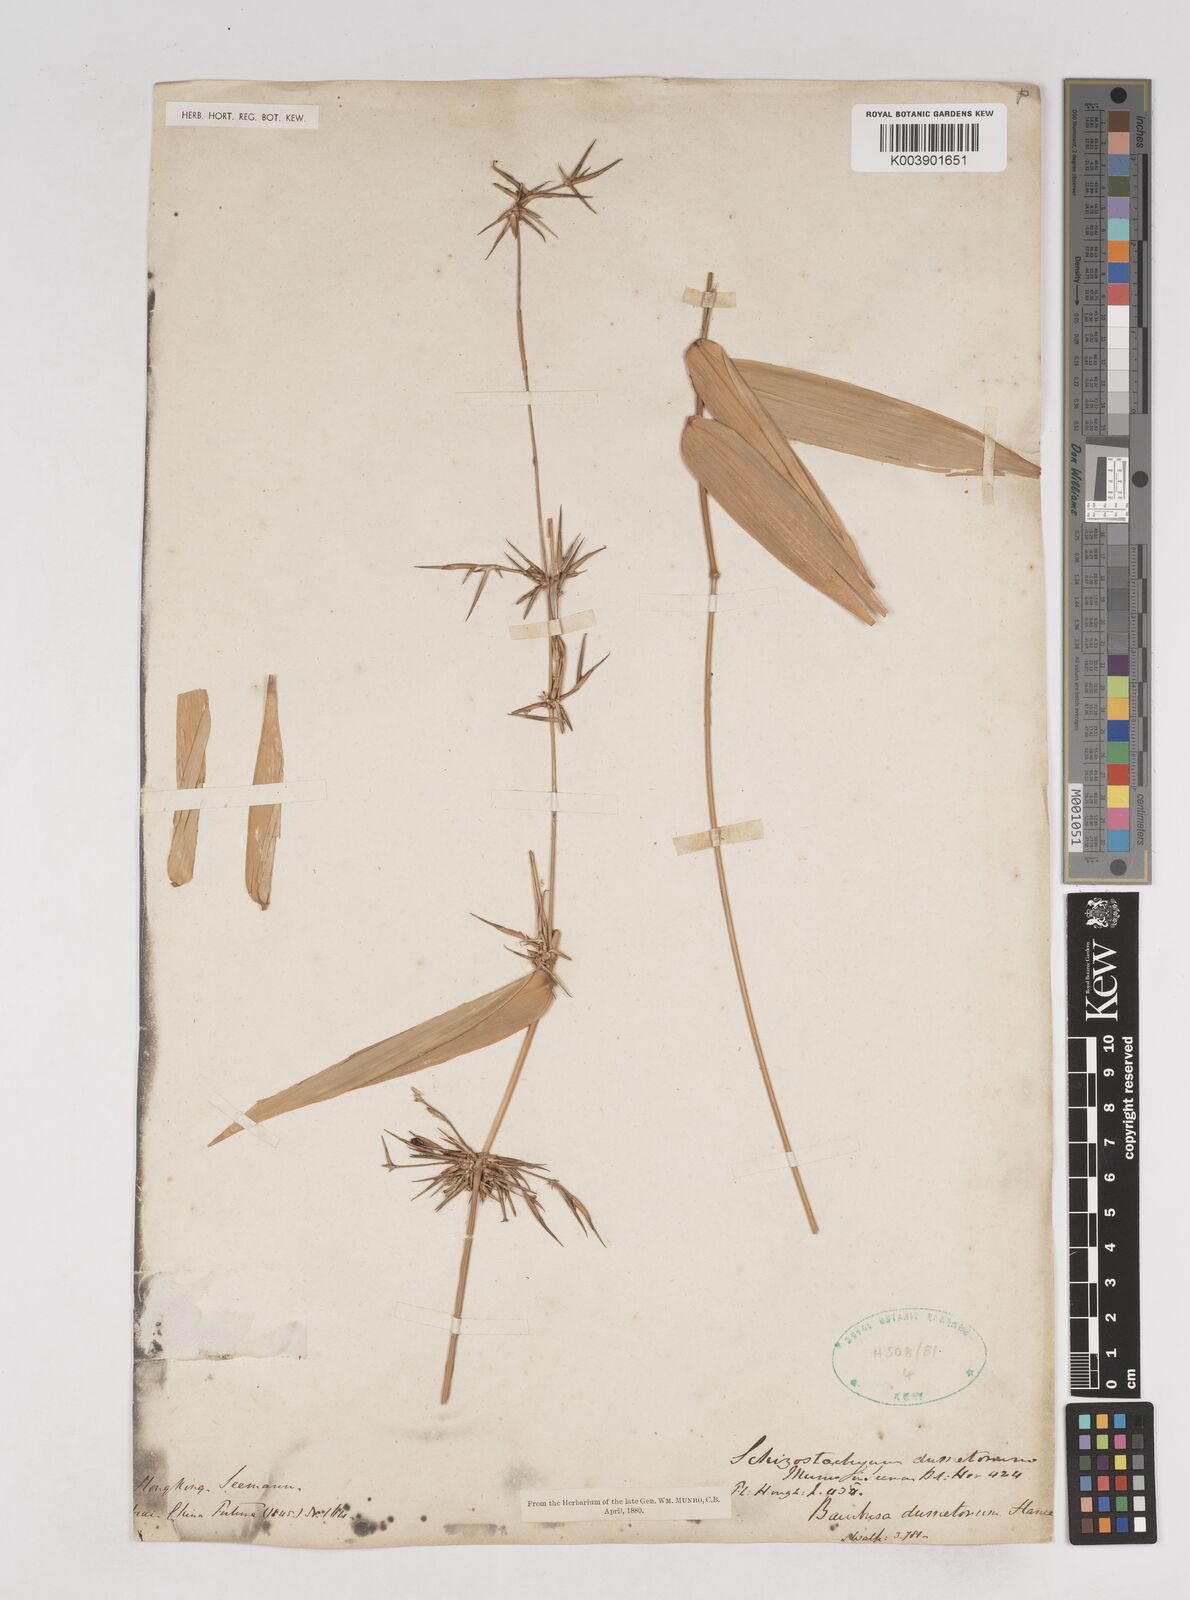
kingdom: Plantae
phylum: Tracheophyta
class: Liliopsida
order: Poales
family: Poaceae
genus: Schizostachyum
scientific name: Schizostachyum dumetorum
